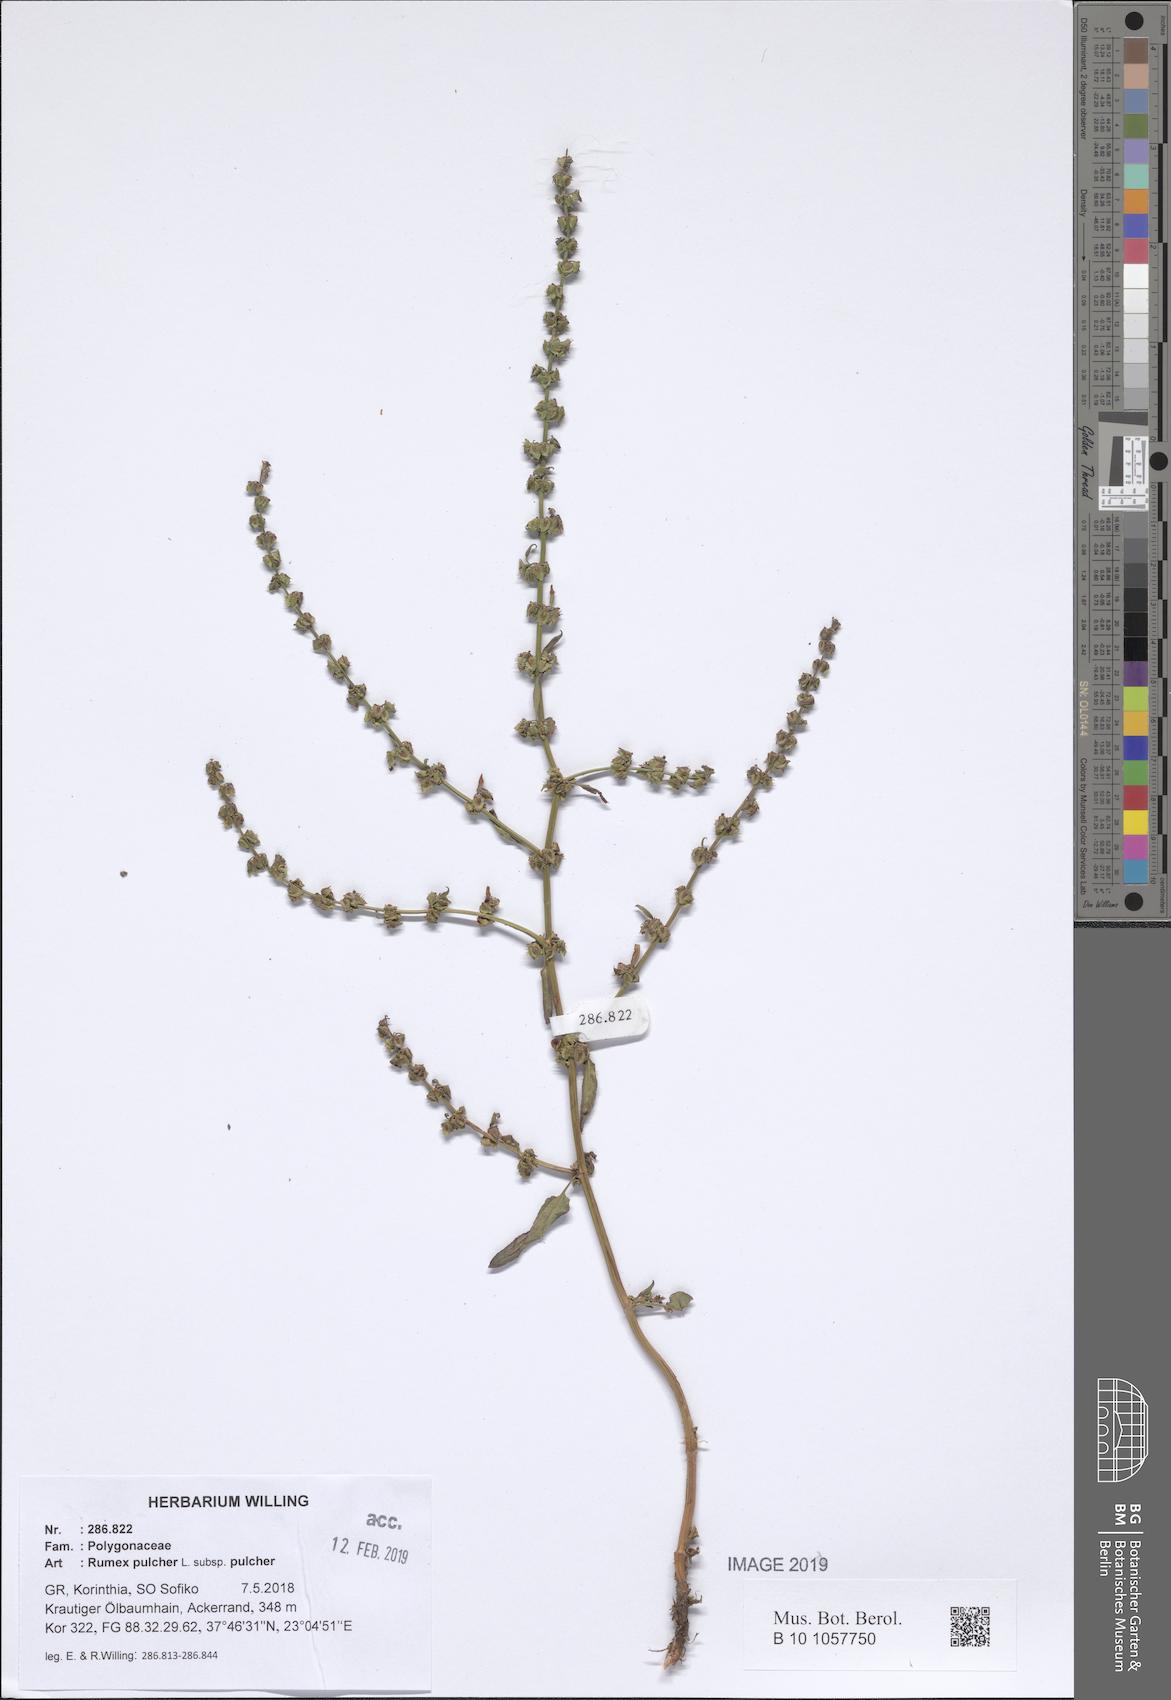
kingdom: Plantae
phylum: Tracheophyta
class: Magnoliopsida
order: Caryophyllales
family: Polygonaceae
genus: Rumex
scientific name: Rumex pulcher
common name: Fiddle dock
